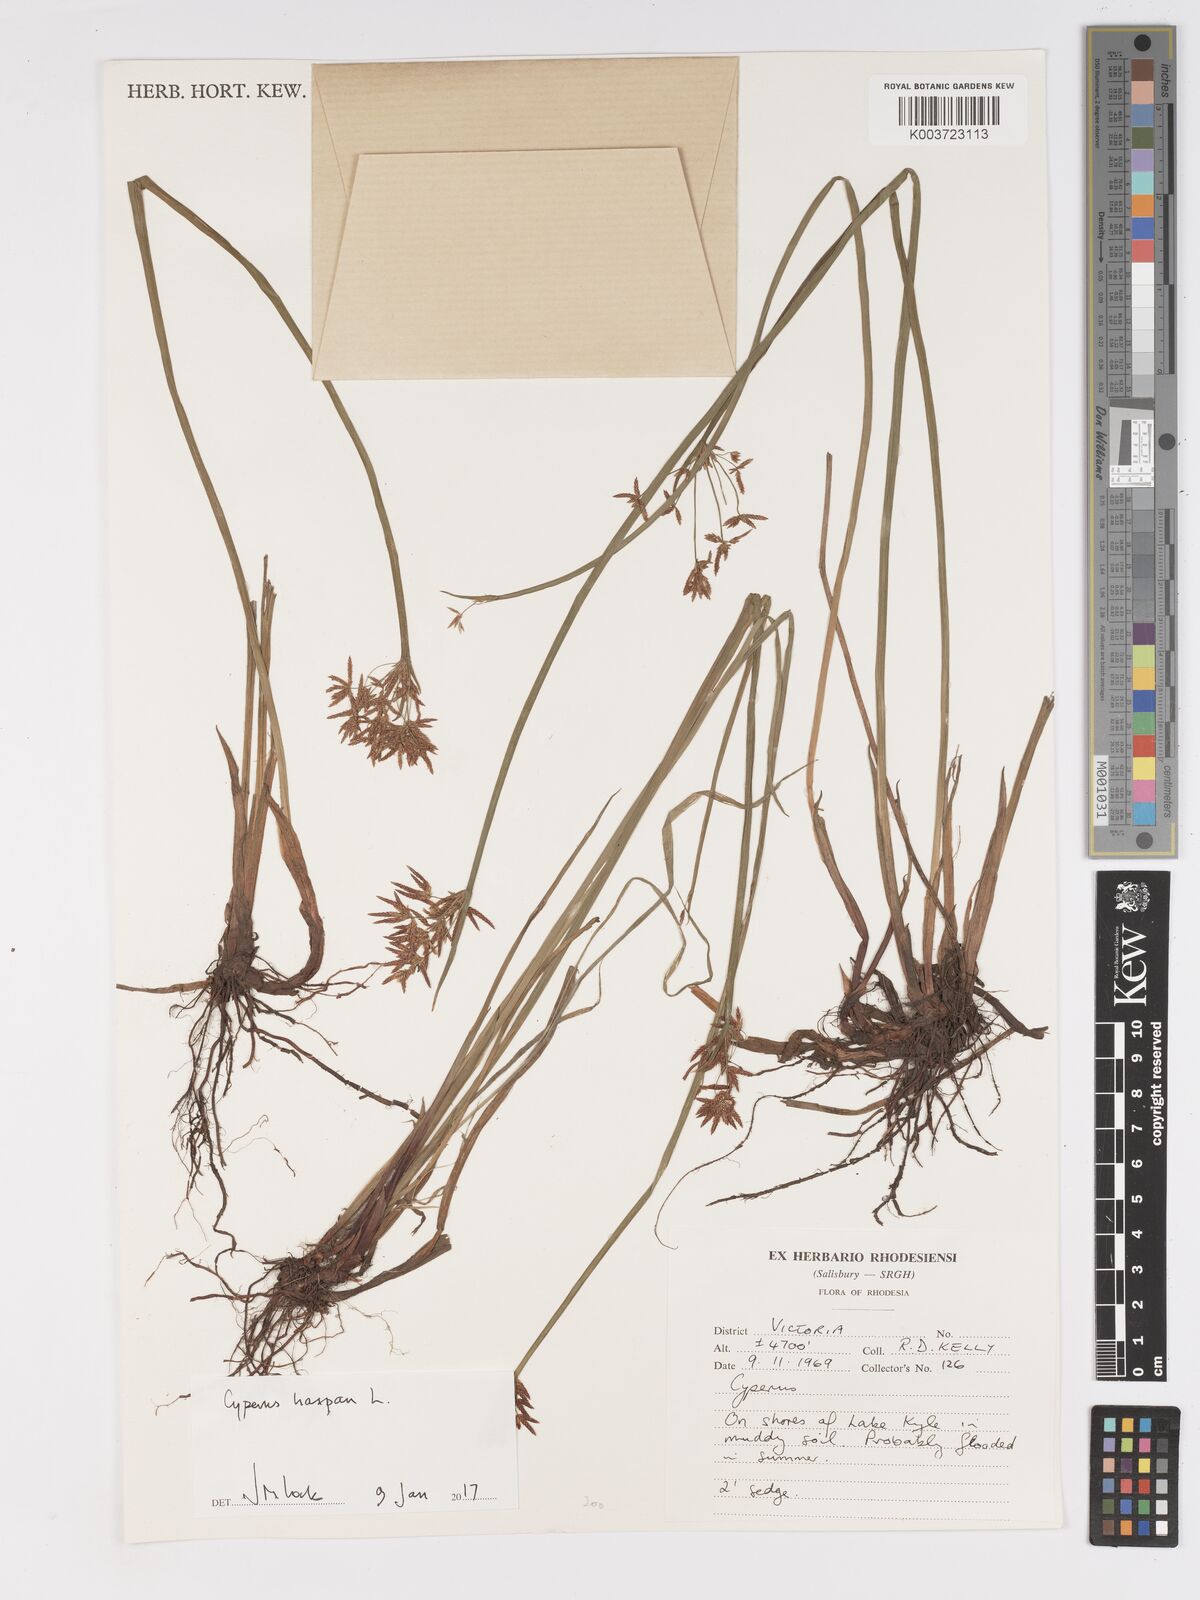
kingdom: Plantae
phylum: Tracheophyta
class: Liliopsida
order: Poales
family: Cyperaceae
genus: Cyperus
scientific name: Cyperus haspan
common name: Haspan flatsedge
